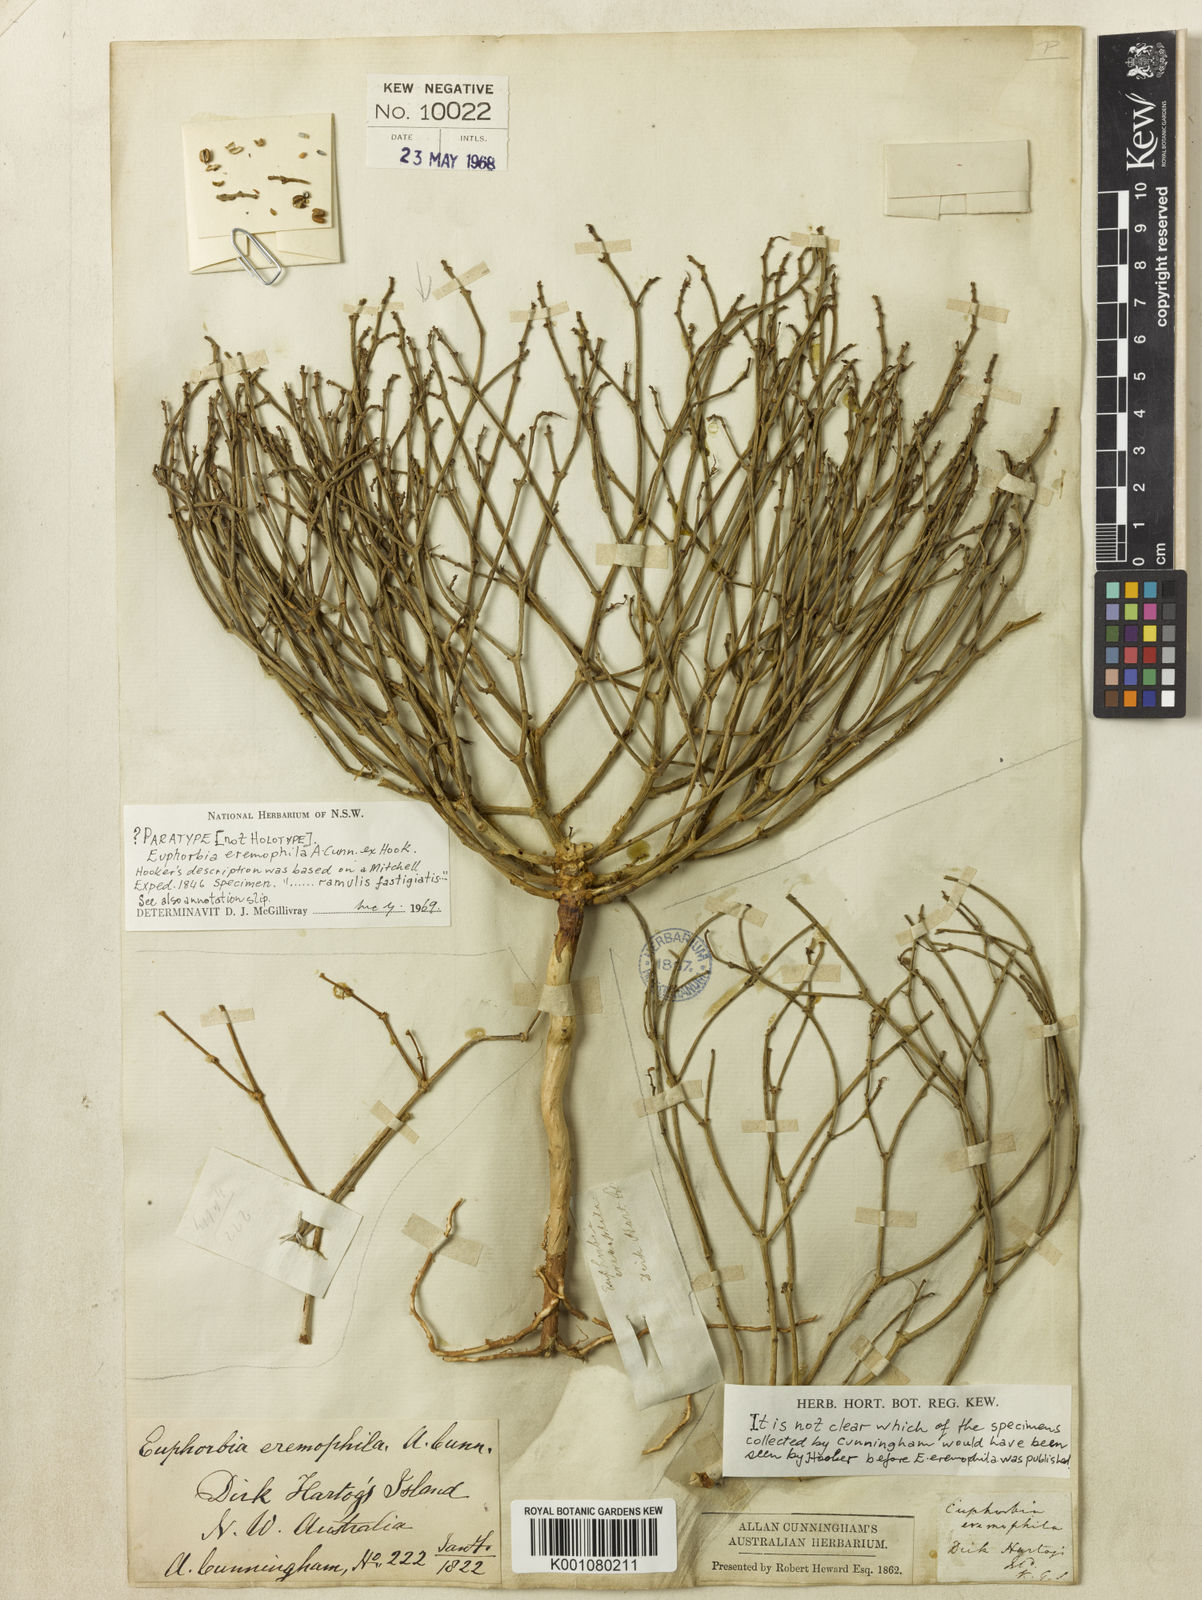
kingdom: Plantae
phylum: Tracheophyta
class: Magnoliopsida
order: Malpighiales
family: Euphorbiaceae
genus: Euphorbia
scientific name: Euphorbia
